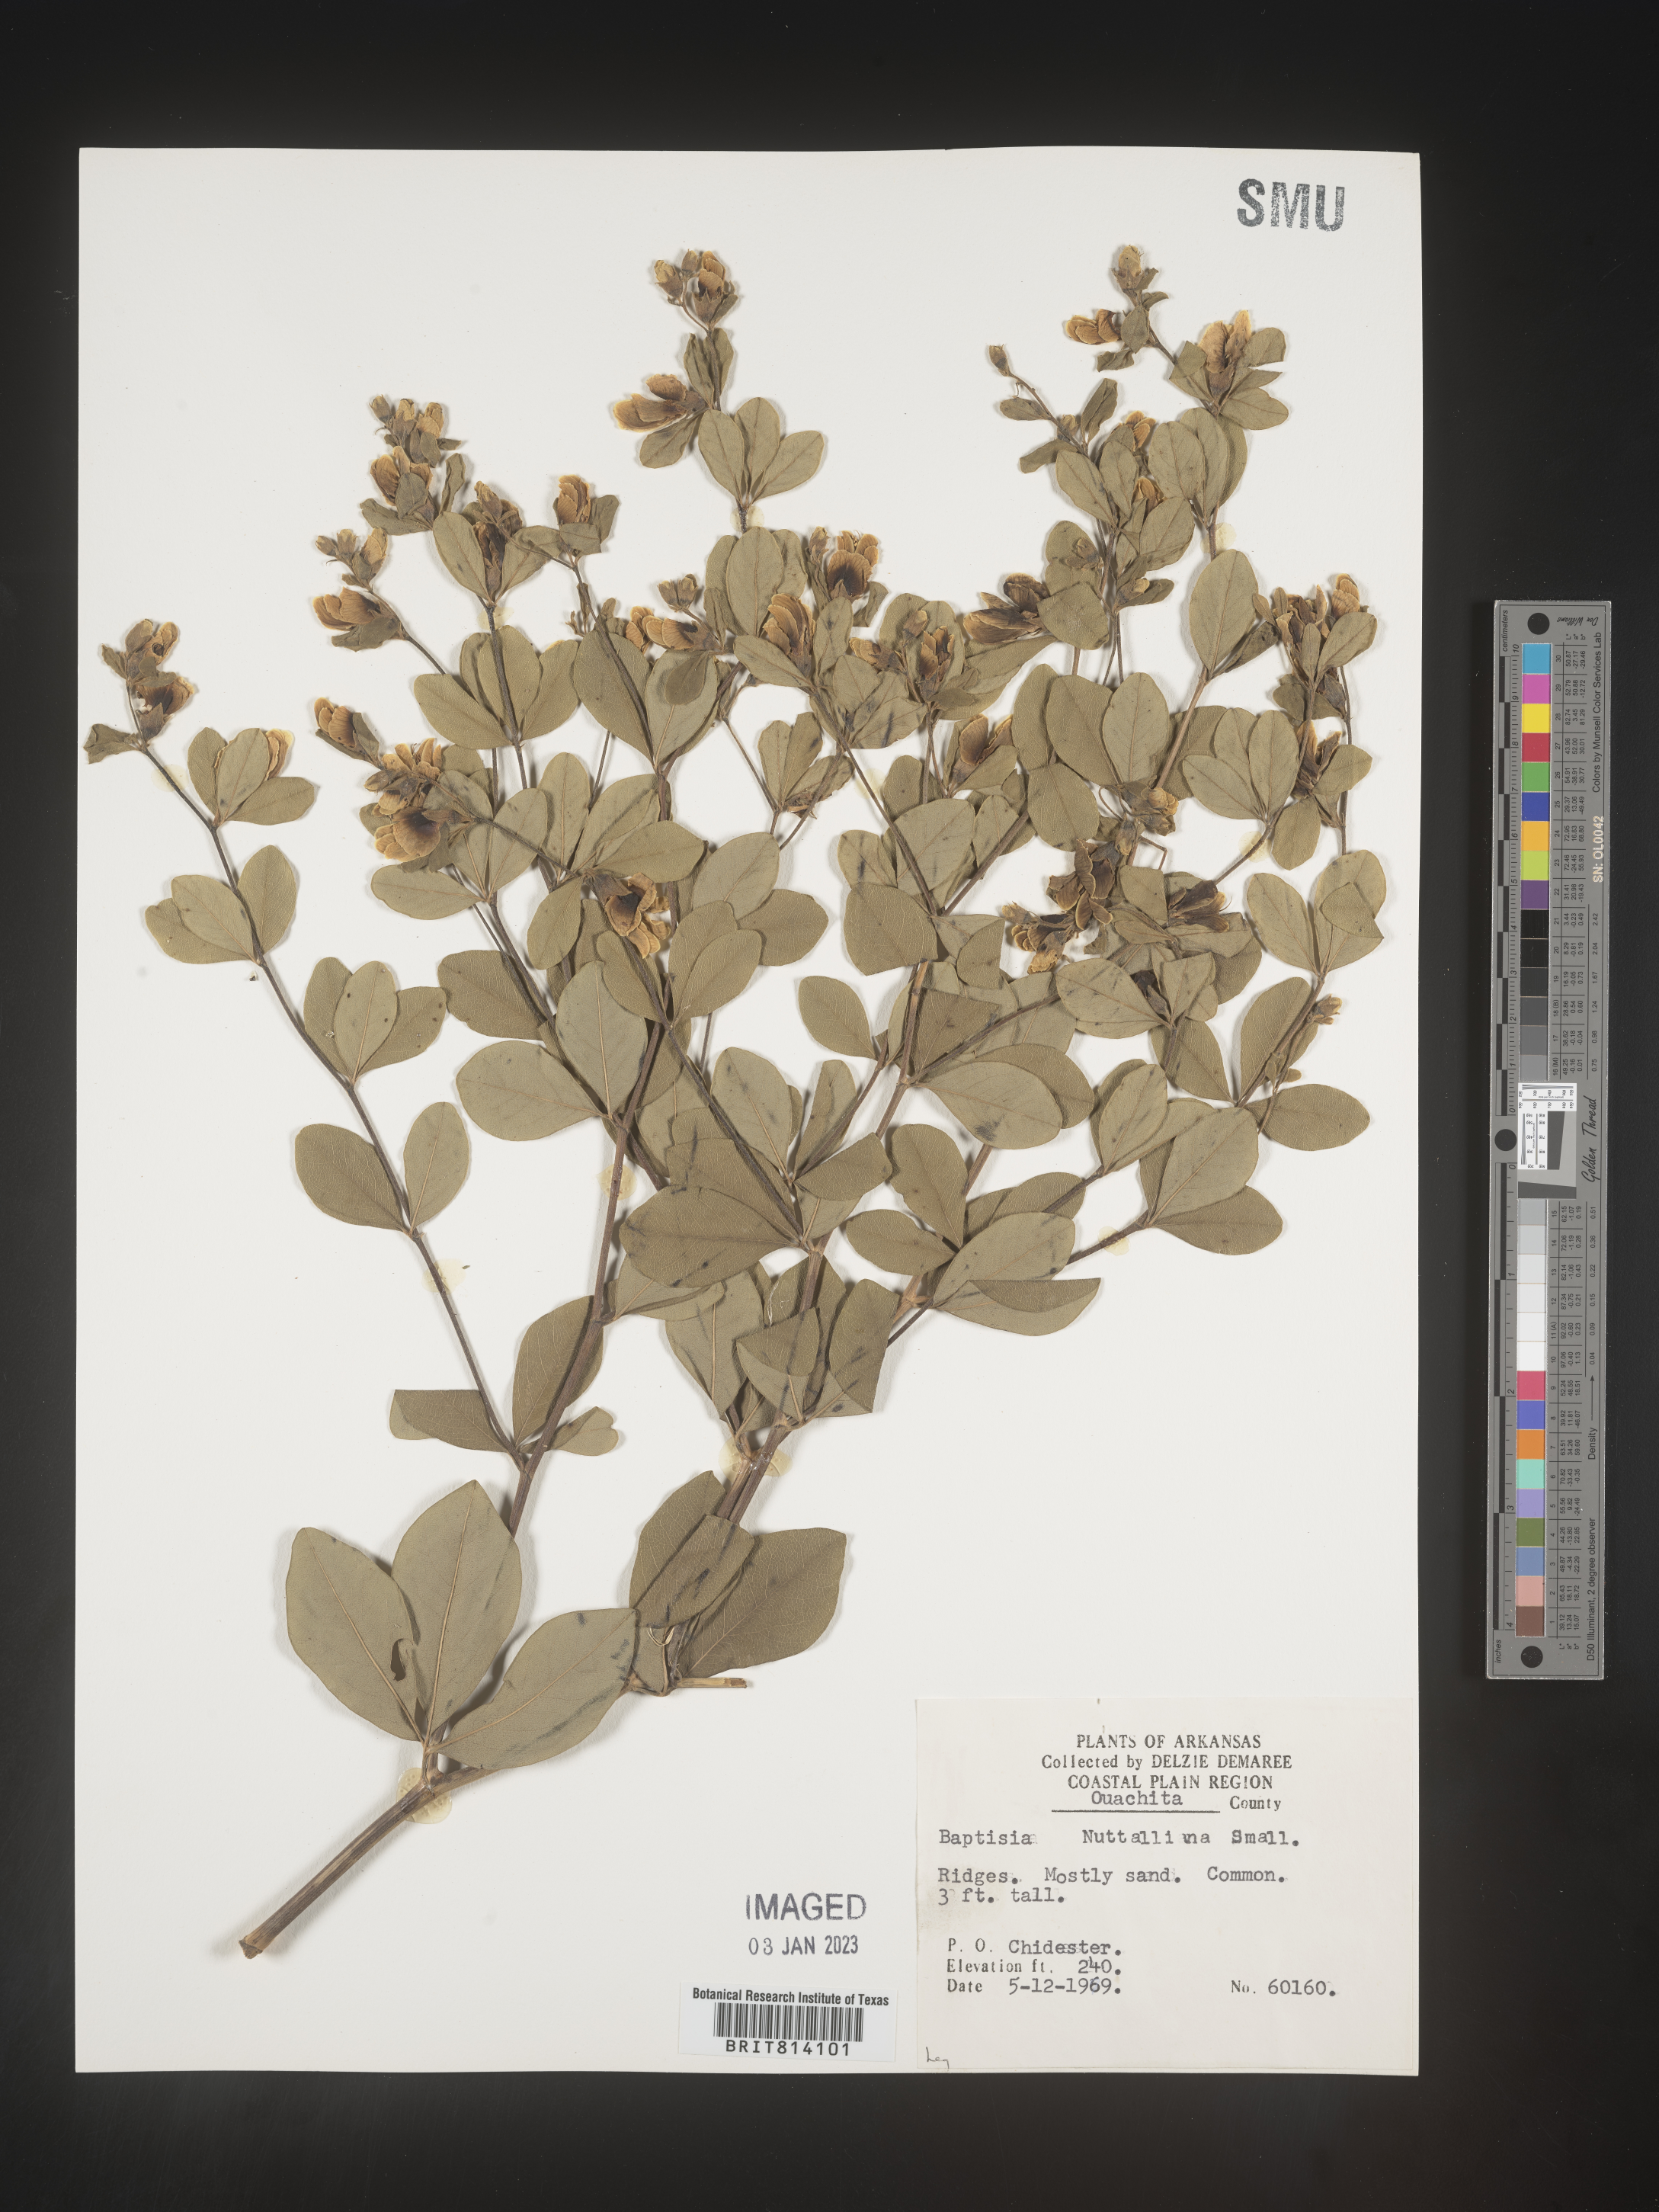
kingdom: Plantae
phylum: Tracheophyta
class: Magnoliopsida
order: Fabales
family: Fabaceae
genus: Baptisia
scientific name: Baptisia nuttalliana
